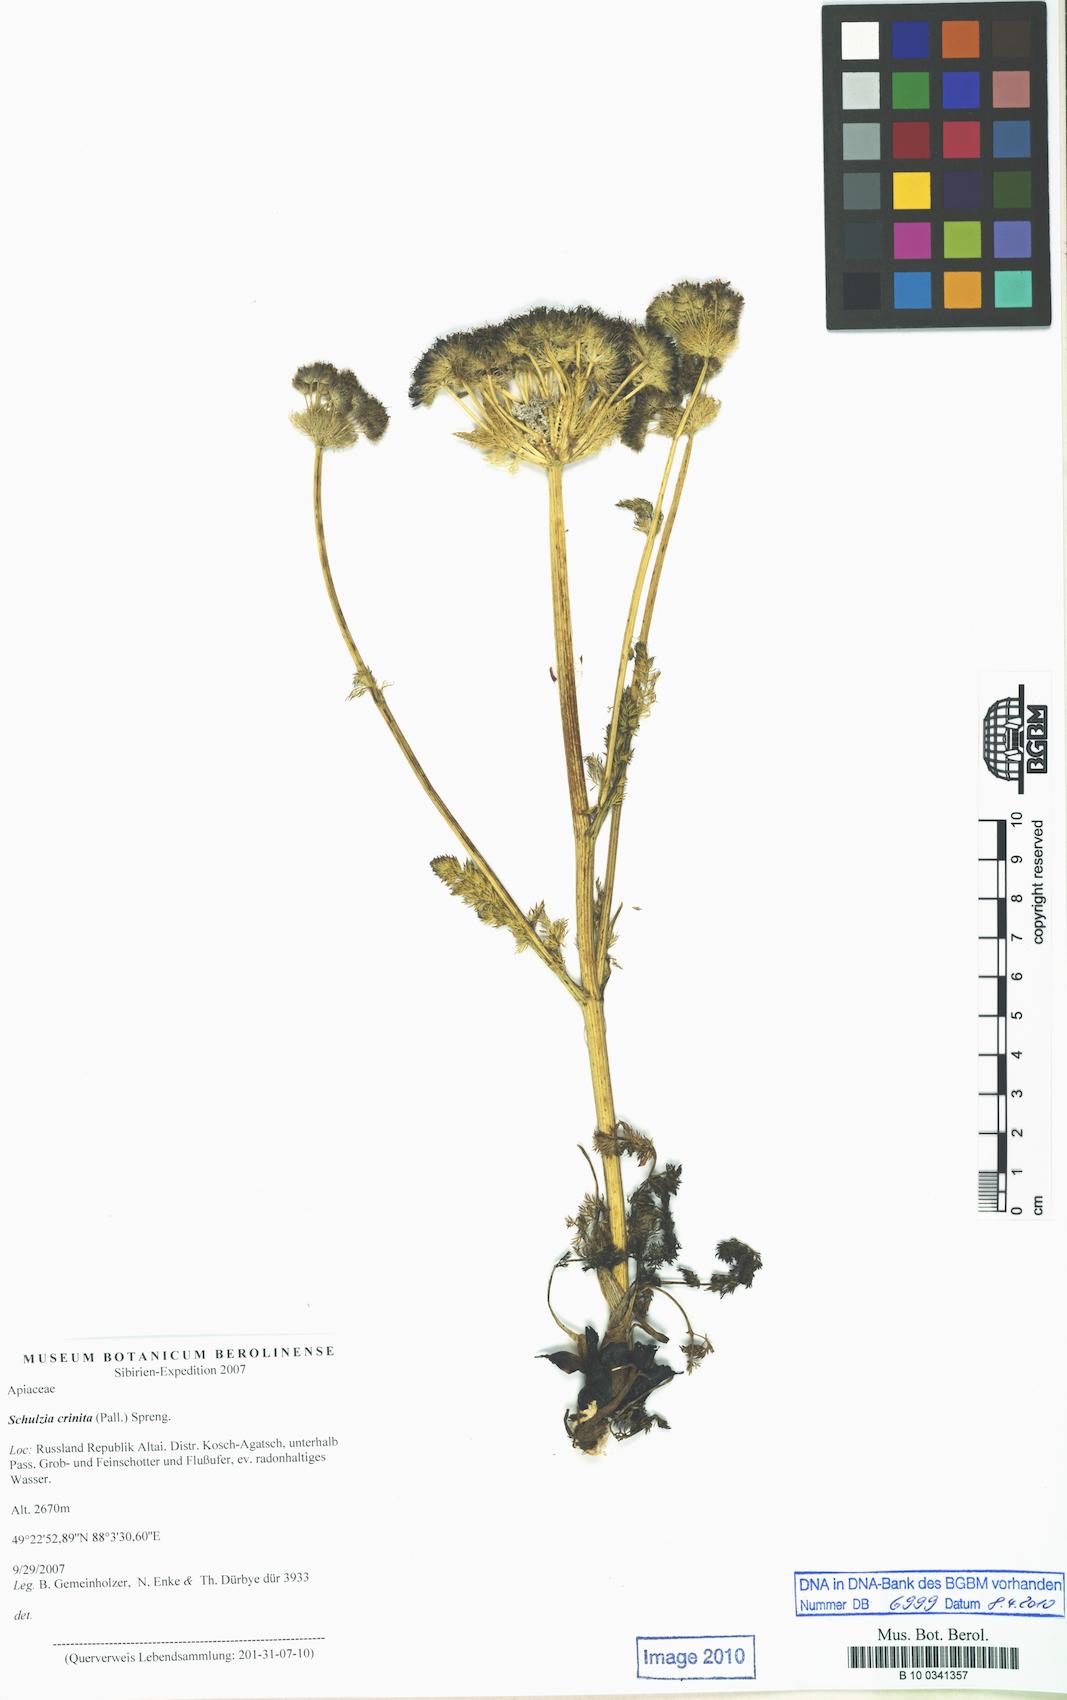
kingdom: Plantae
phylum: Tracheophyta
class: Magnoliopsida
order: Apiales
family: Apiaceae
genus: Schulzia
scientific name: Schulzia crinita
